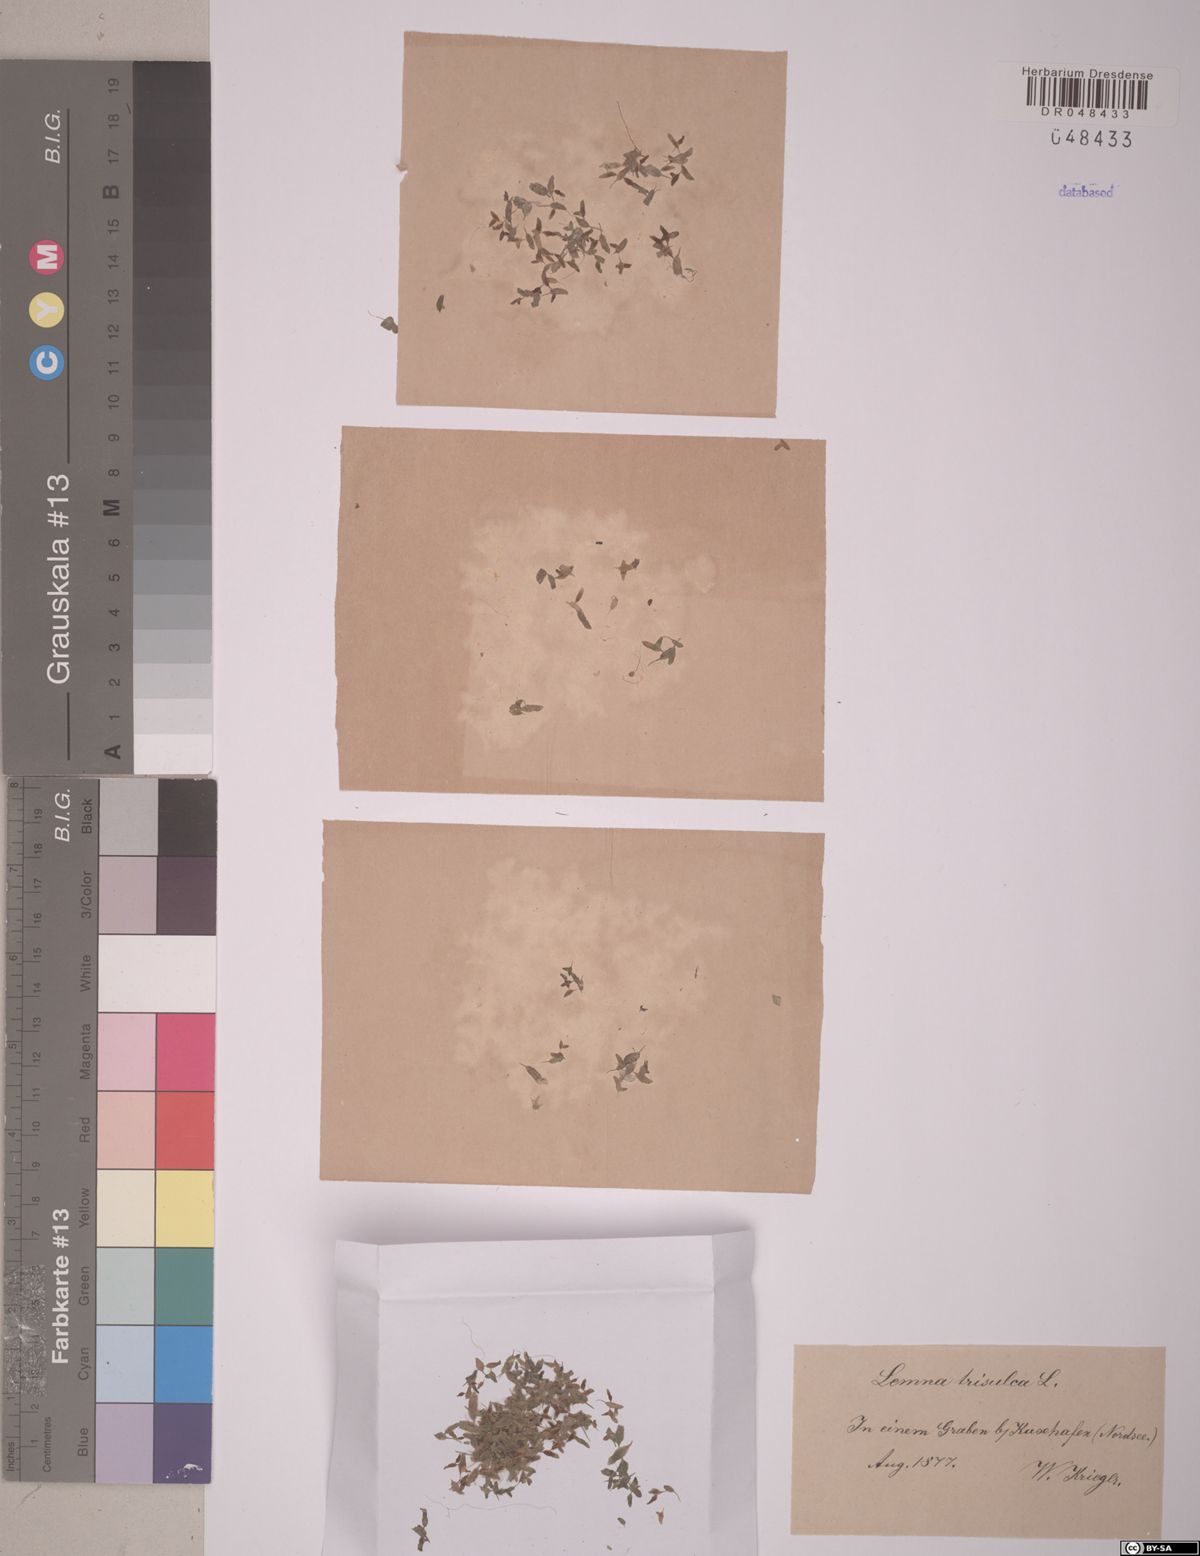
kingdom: Plantae
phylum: Tracheophyta
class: Liliopsida
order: Alismatales
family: Araceae
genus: Lemna
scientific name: Lemna trisulca
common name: Ivy-leaved duckweed
